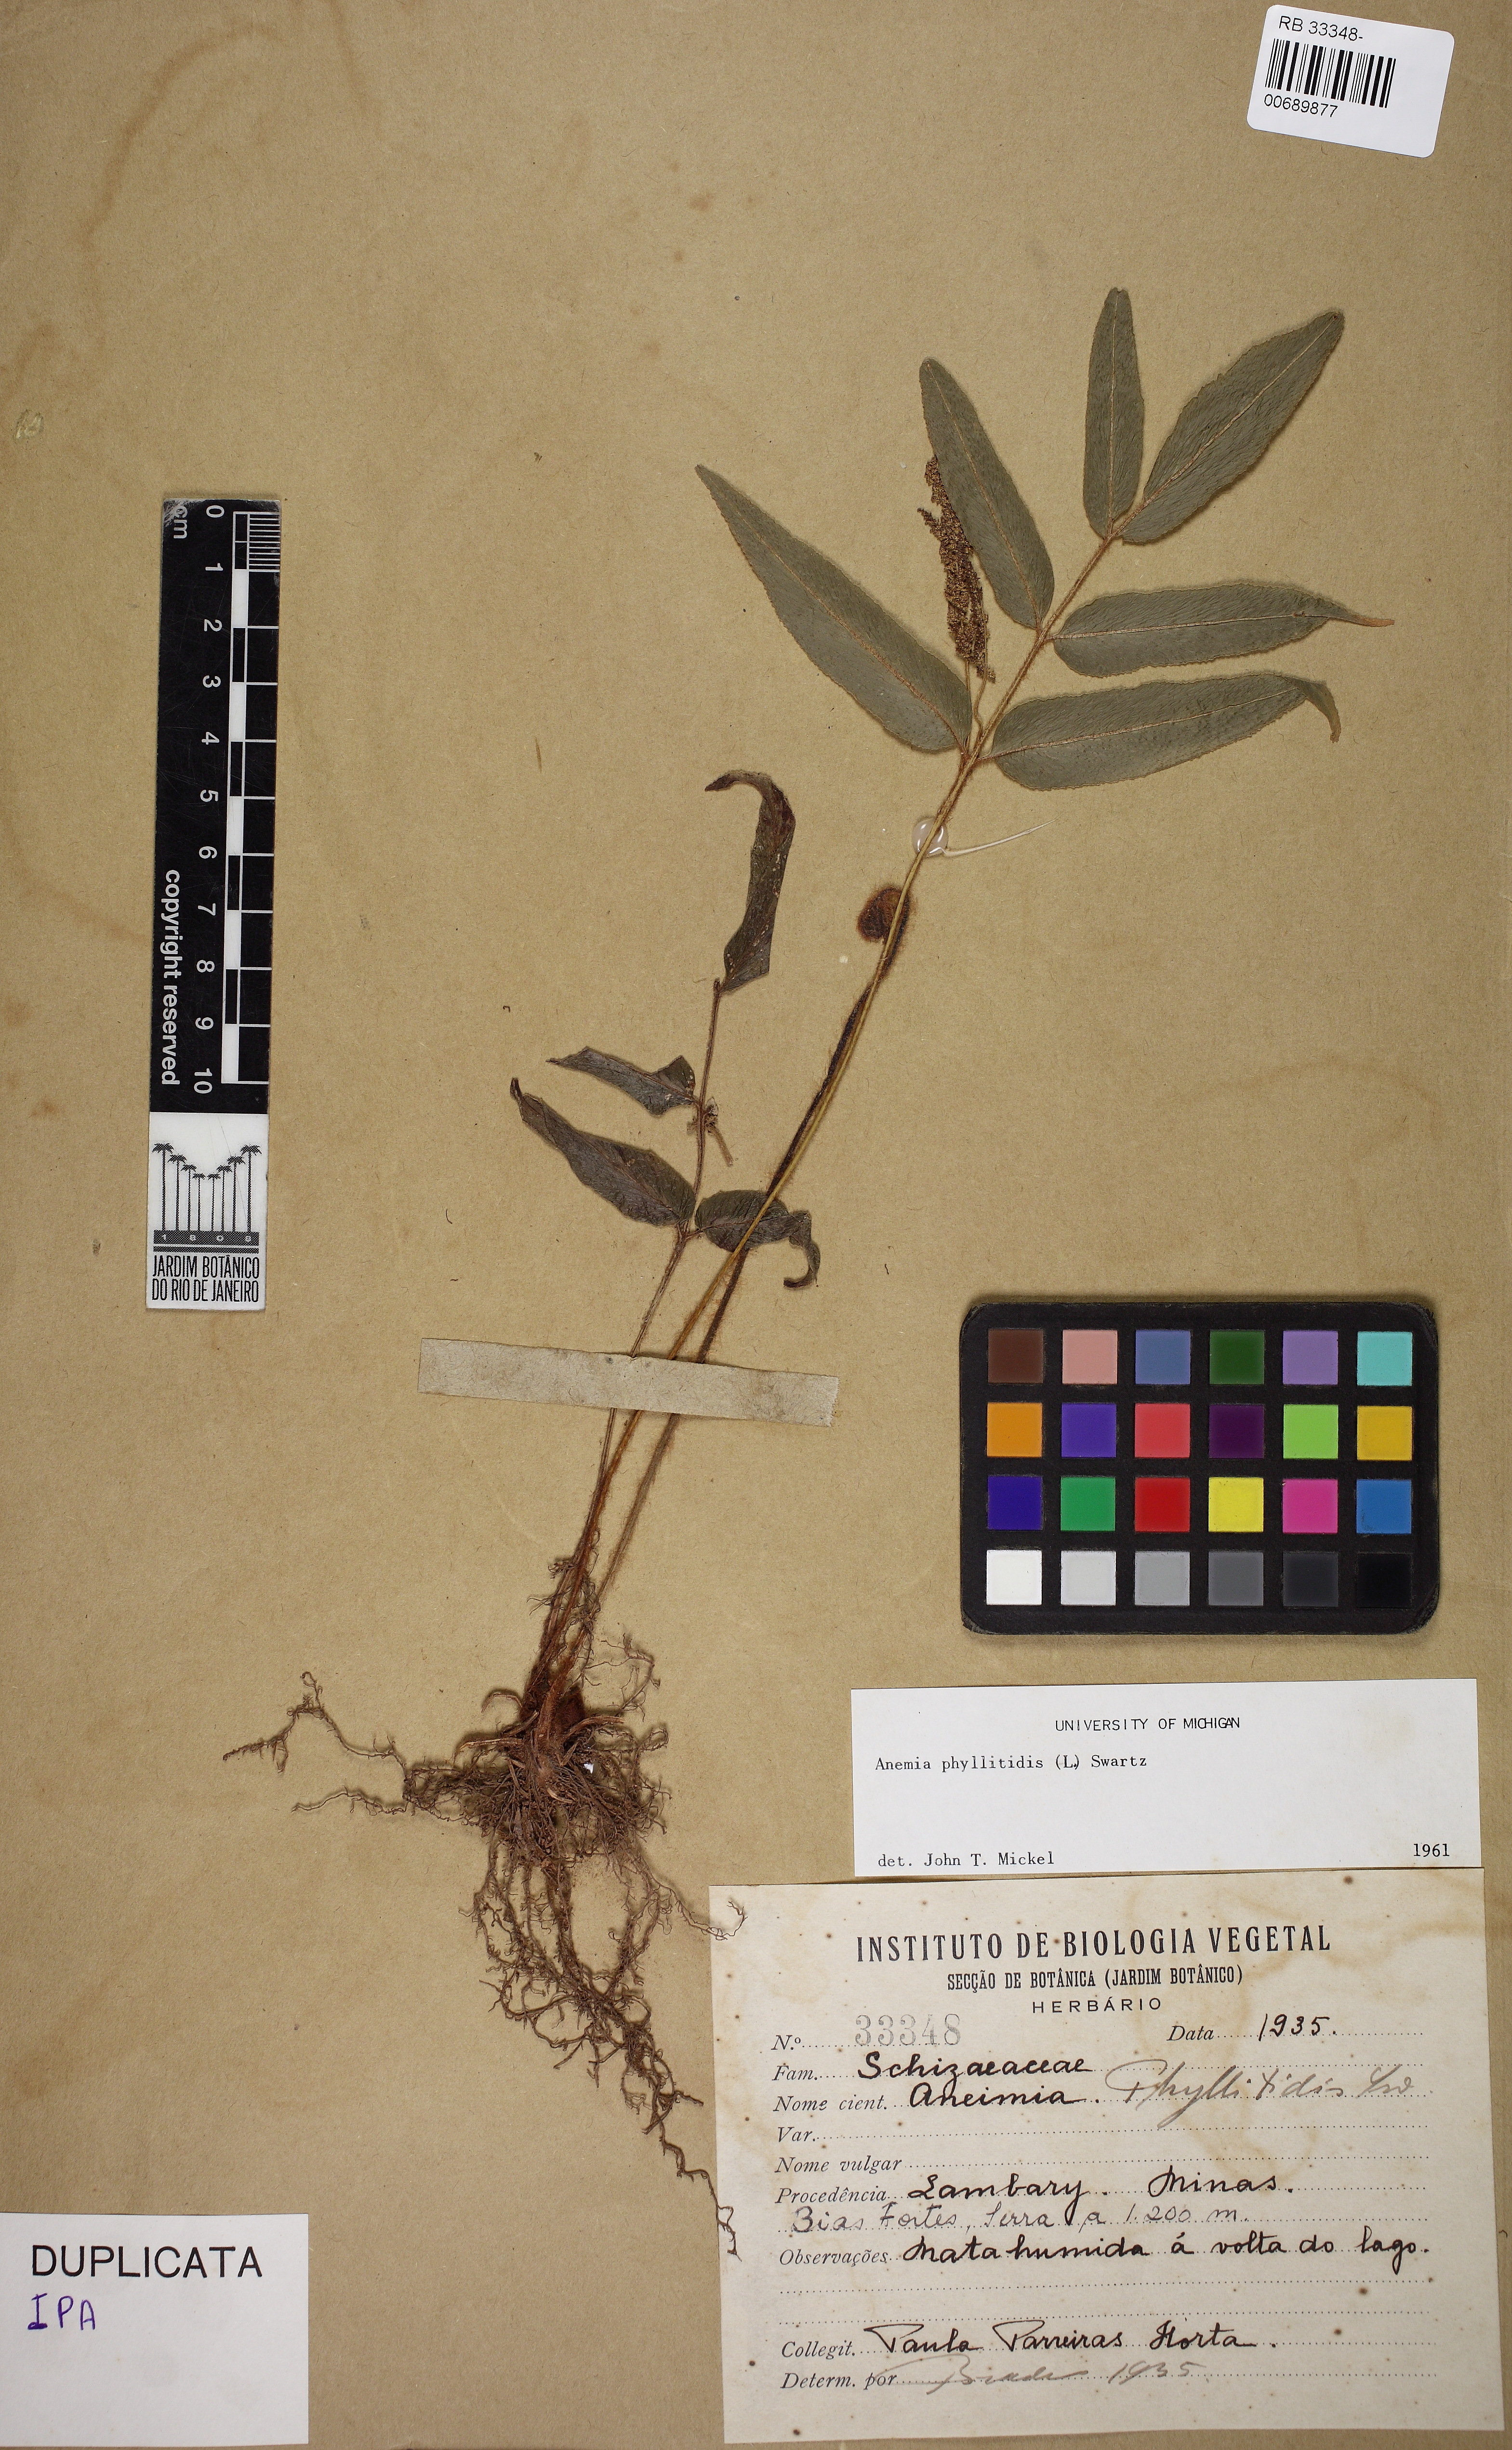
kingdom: Plantae
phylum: Tracheophyta
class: Polypodiopsida
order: Schizaeales
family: Anemiaceae
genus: Anemia
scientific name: Anemia phyllitidis
